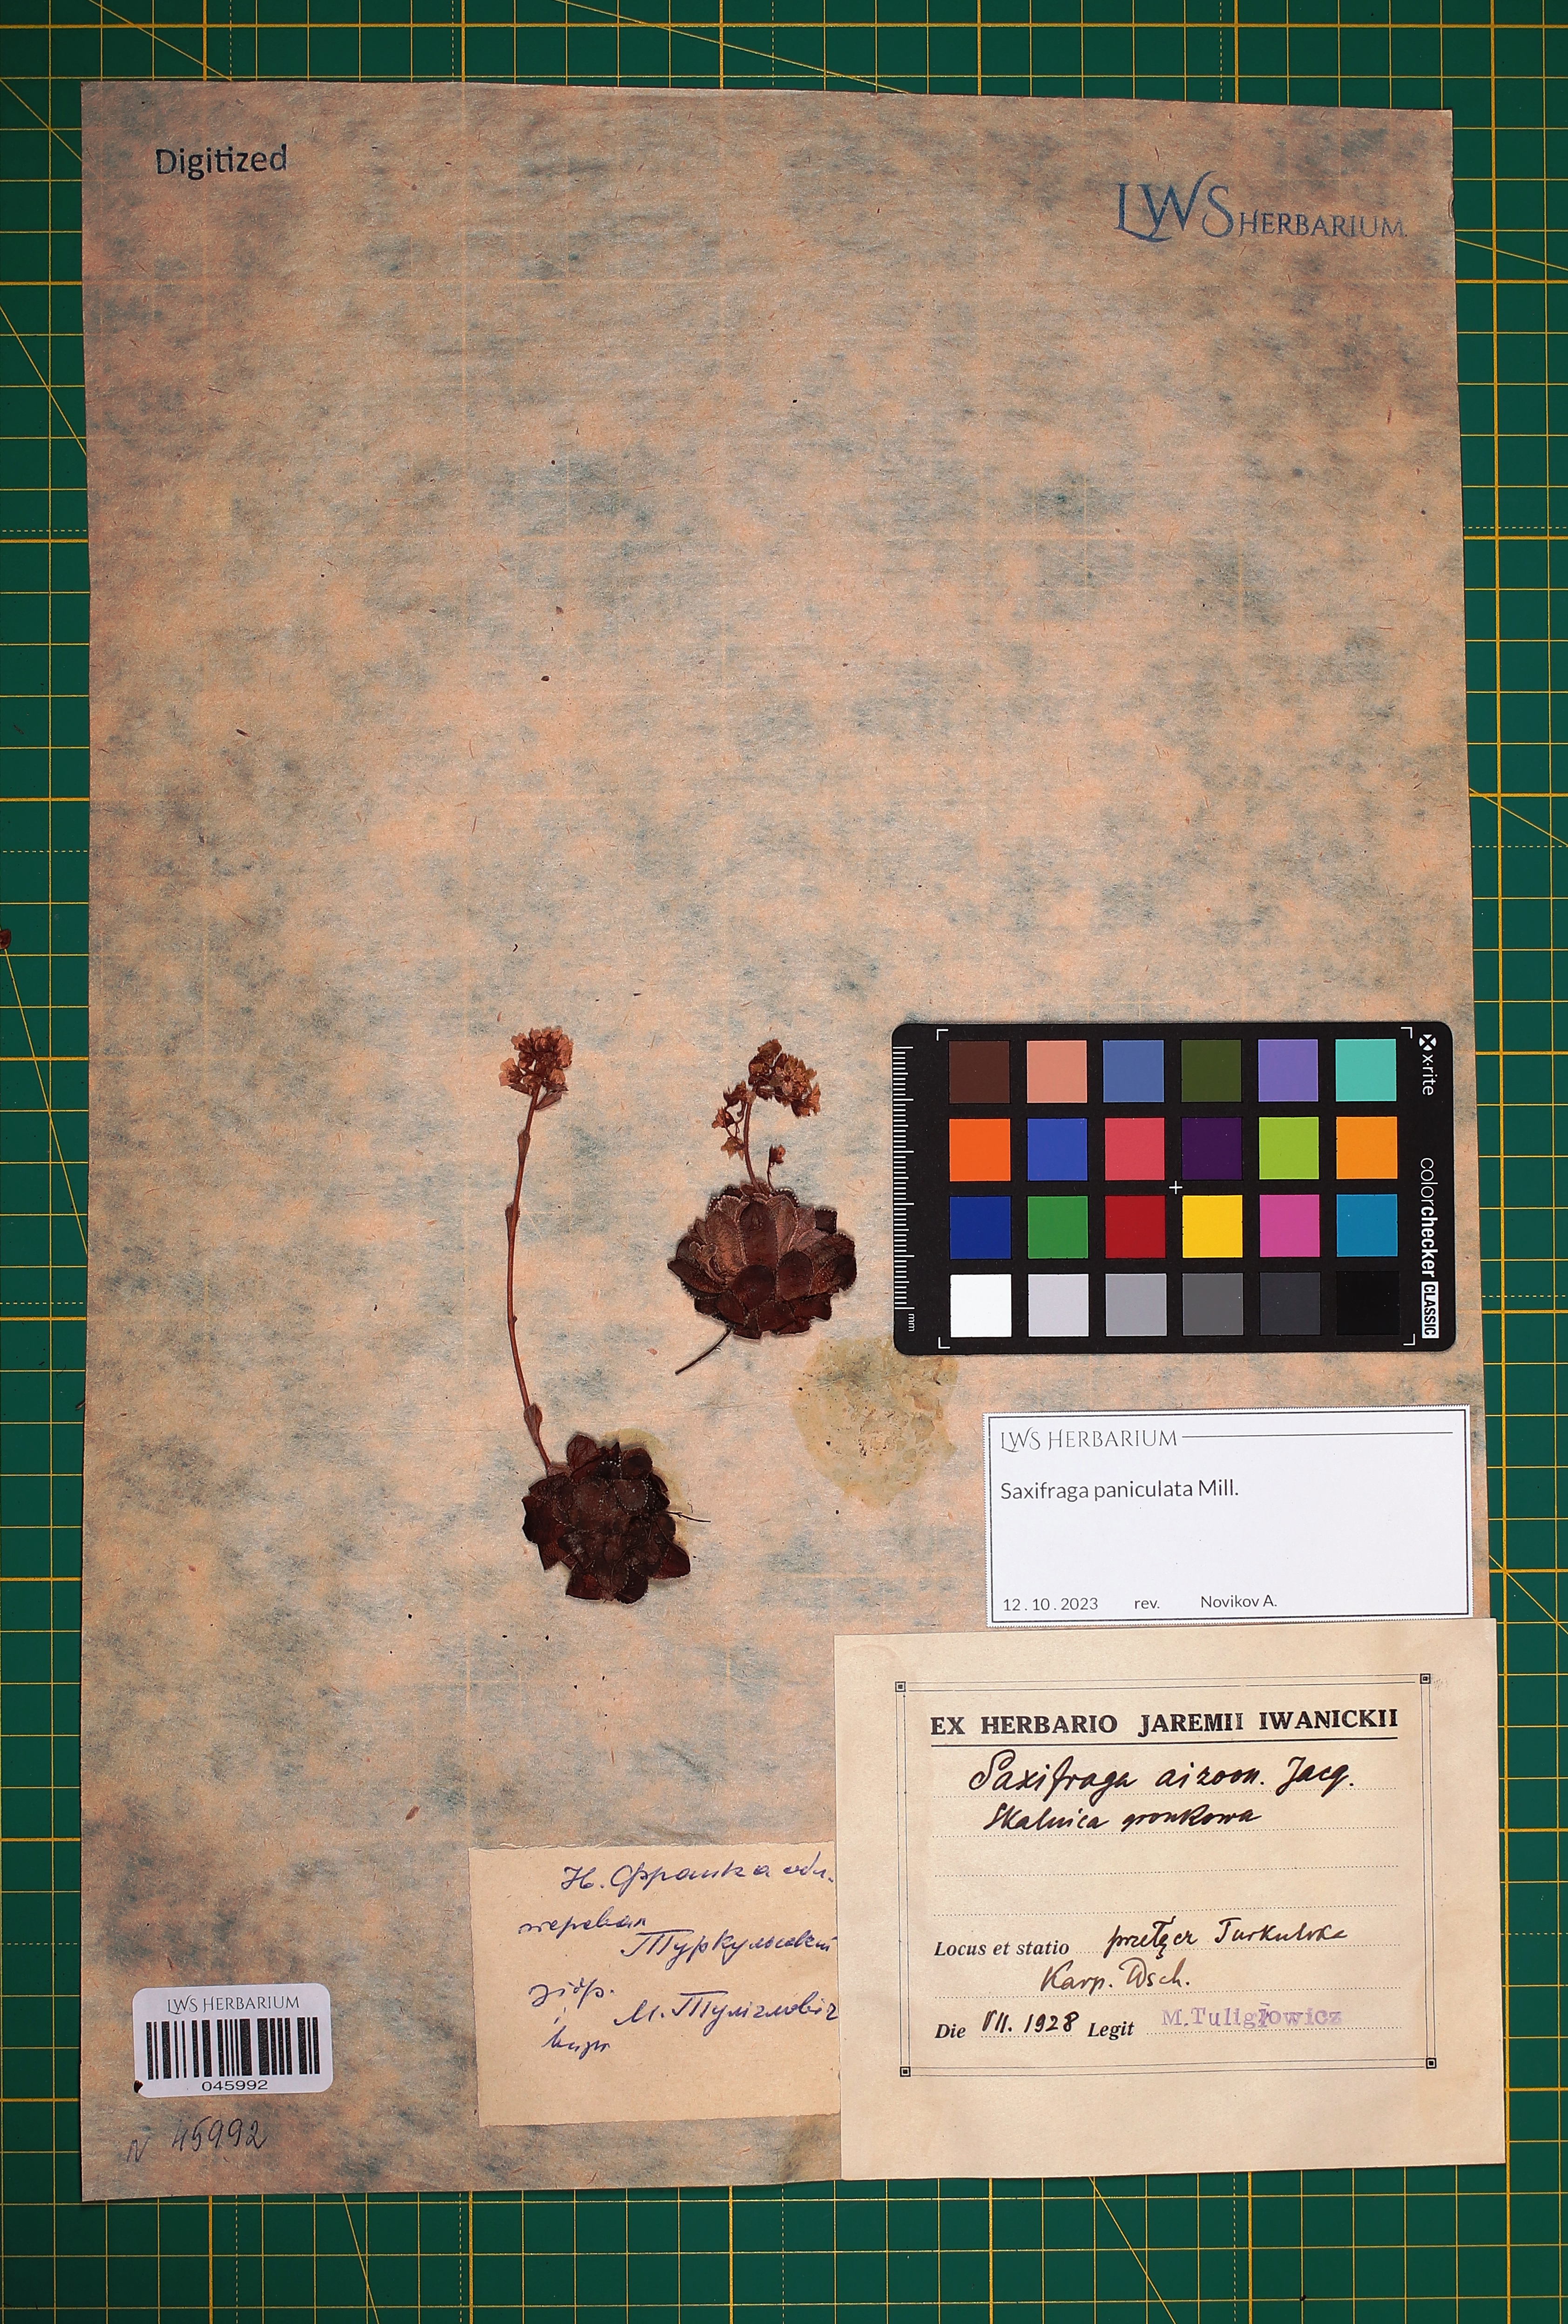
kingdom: Plantae
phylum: Tracheophyta
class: Magnoliopsida
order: Saxifragales
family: Saxifragaceae
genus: Saxifraga
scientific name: Saxifraga paniculata
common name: Livelong saxifrage
